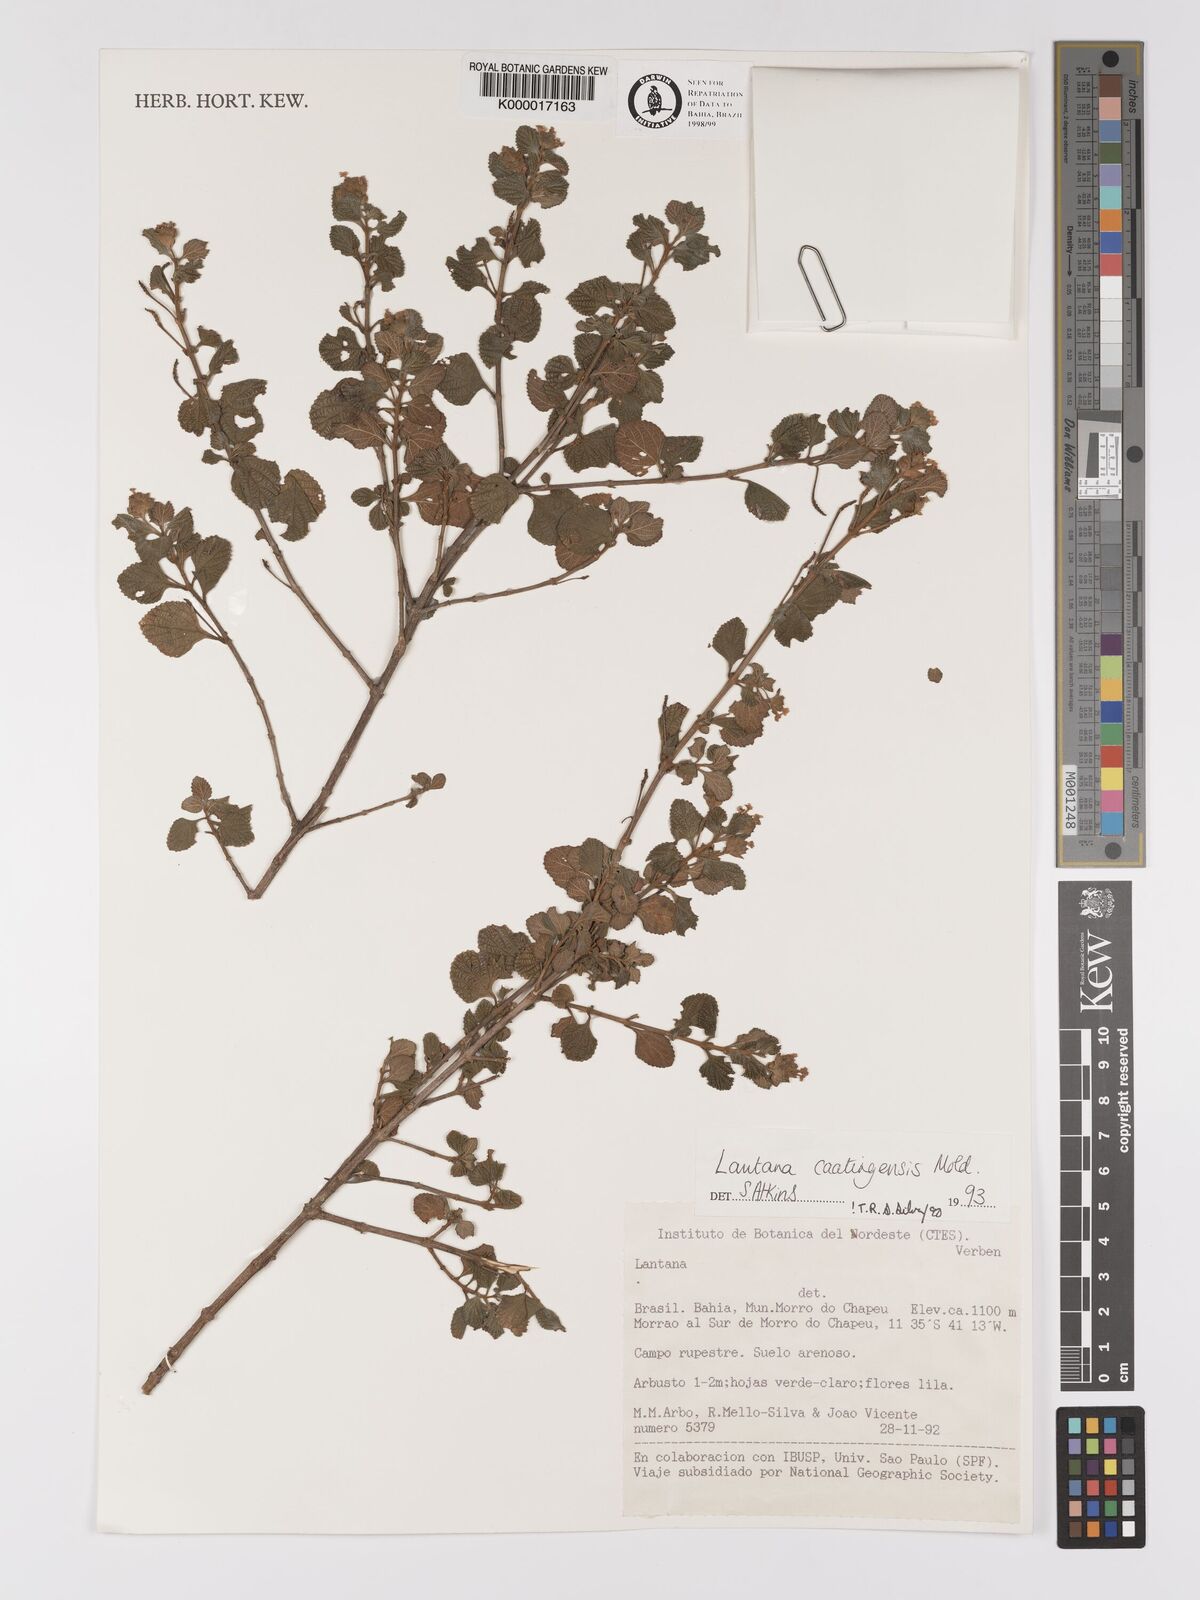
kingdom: Plantae
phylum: Tracheophyta
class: Magnoliopsida
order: Lamiales
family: Verbenaceae
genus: Lantana
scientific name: Lantana caatingensis
